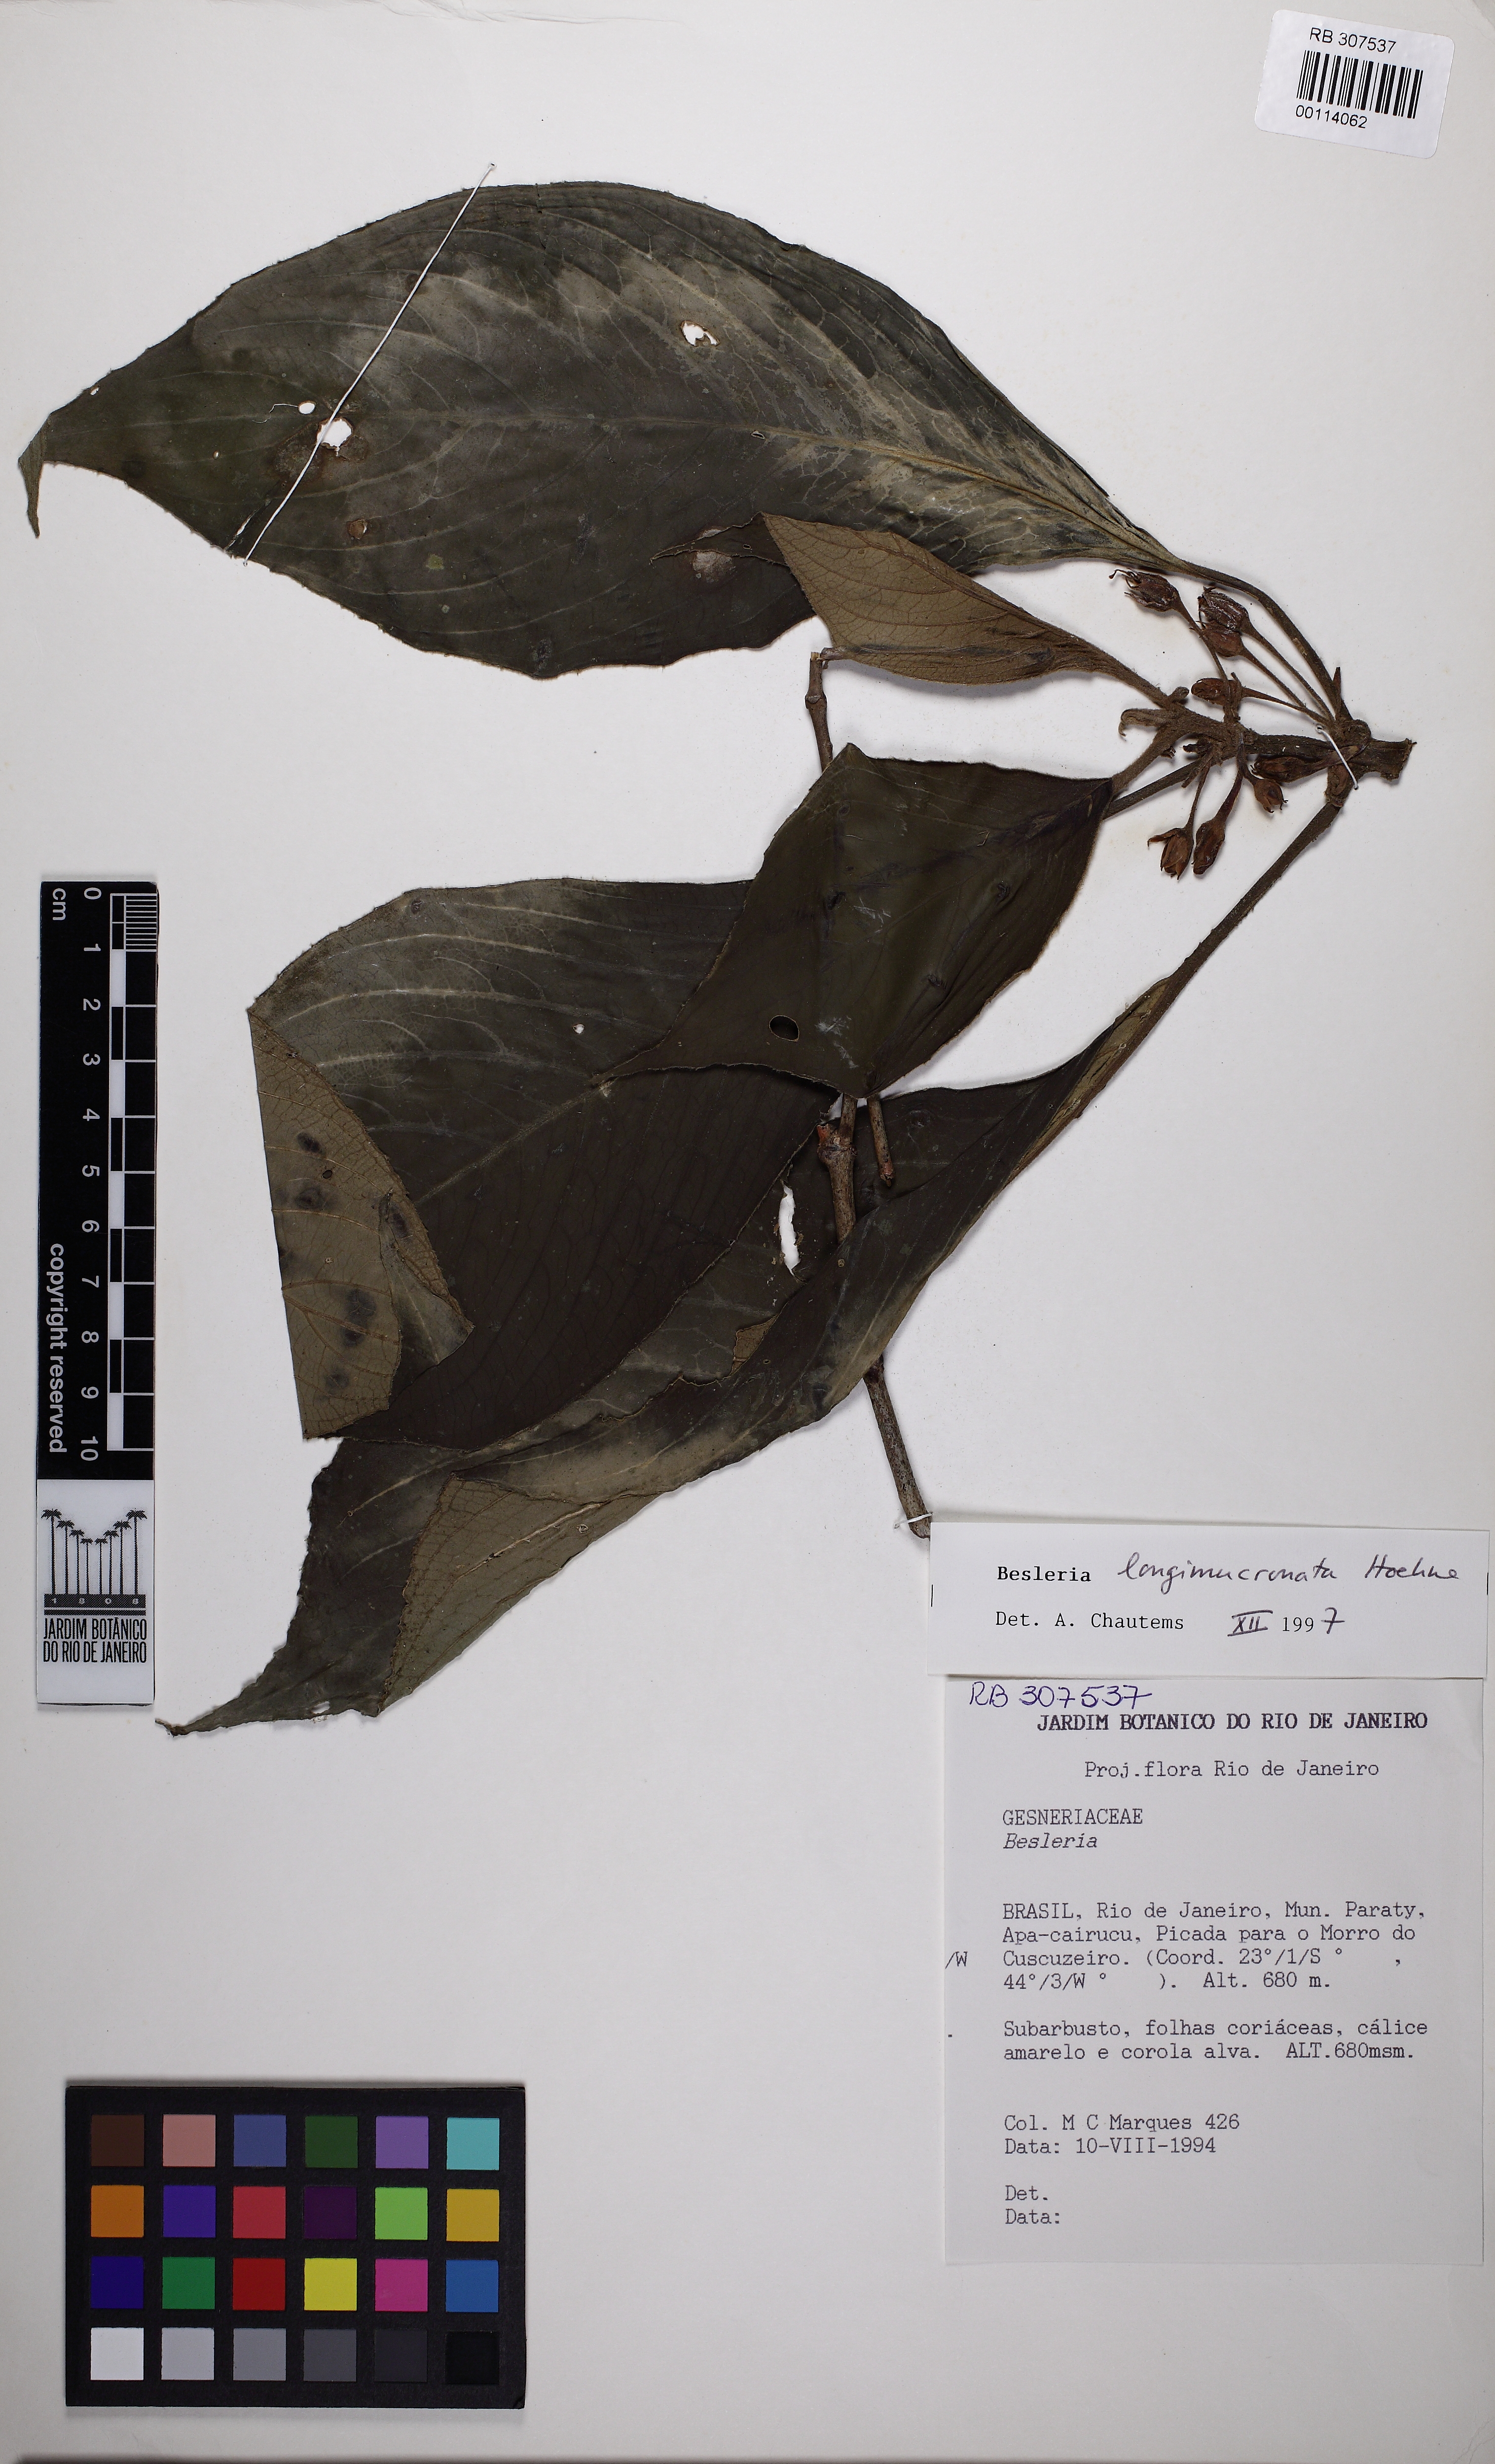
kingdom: Plantae
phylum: Tracheophyta
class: Magnoliopsida
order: Lamiales
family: Gesneriaceae
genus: Besleria
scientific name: Besleria longimucronata
